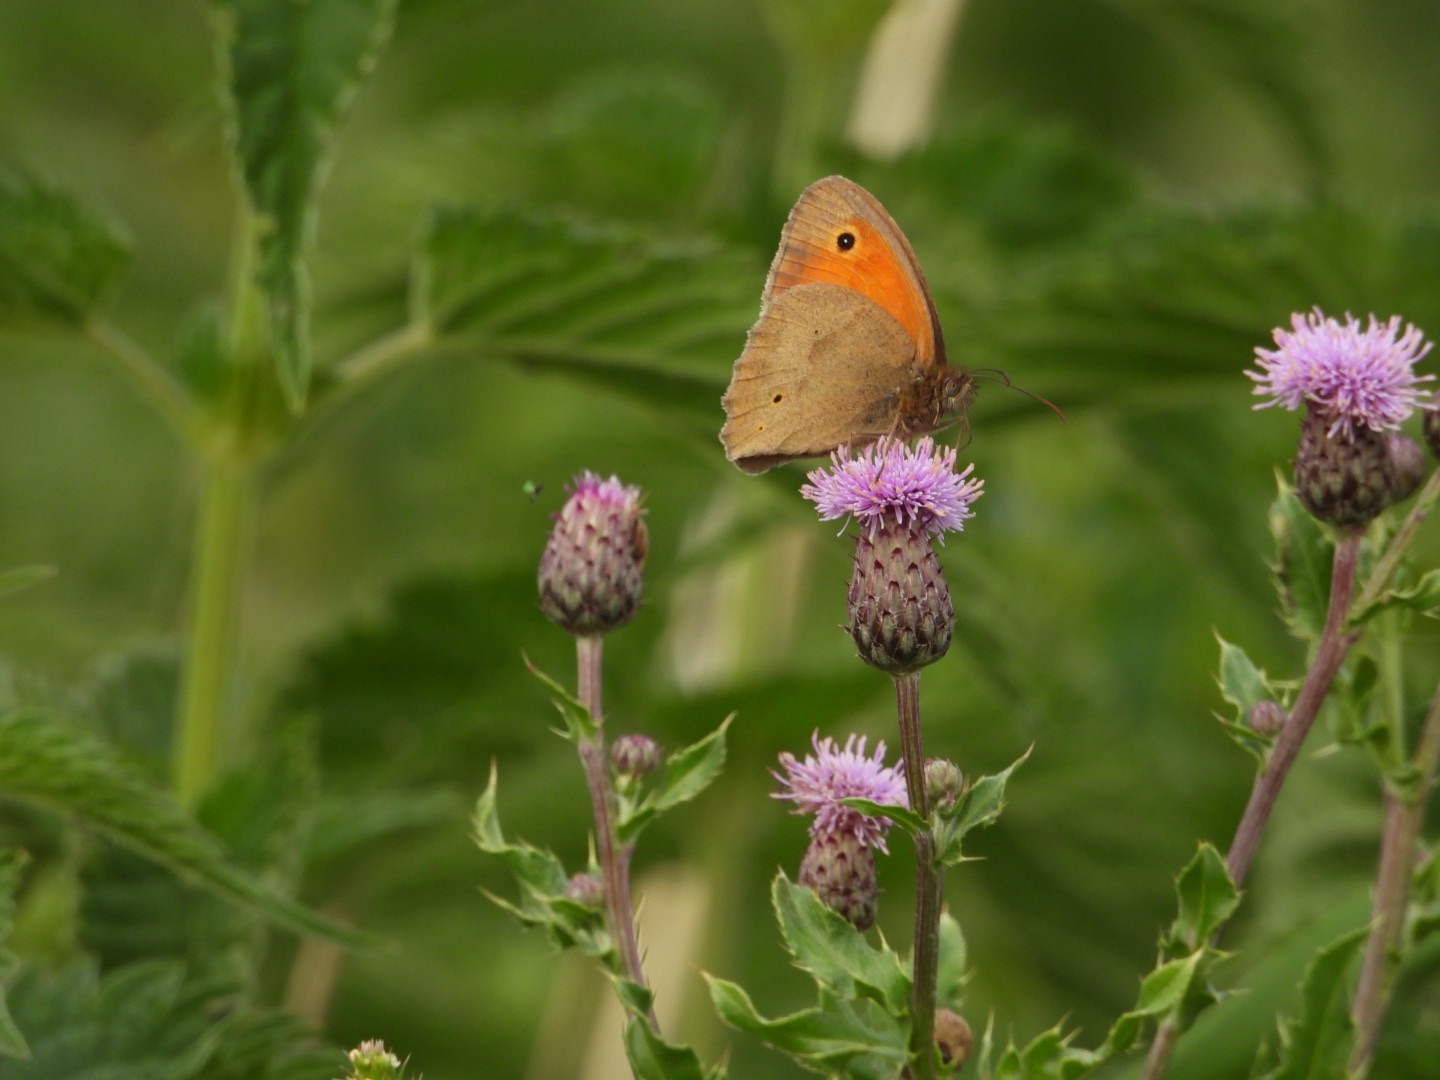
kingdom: Animalia
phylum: Arthropoda
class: Insecta
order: Lepidoptera
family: Nymphalidae
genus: Maniola
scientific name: Maniola jurtina
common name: Græsrandøje
